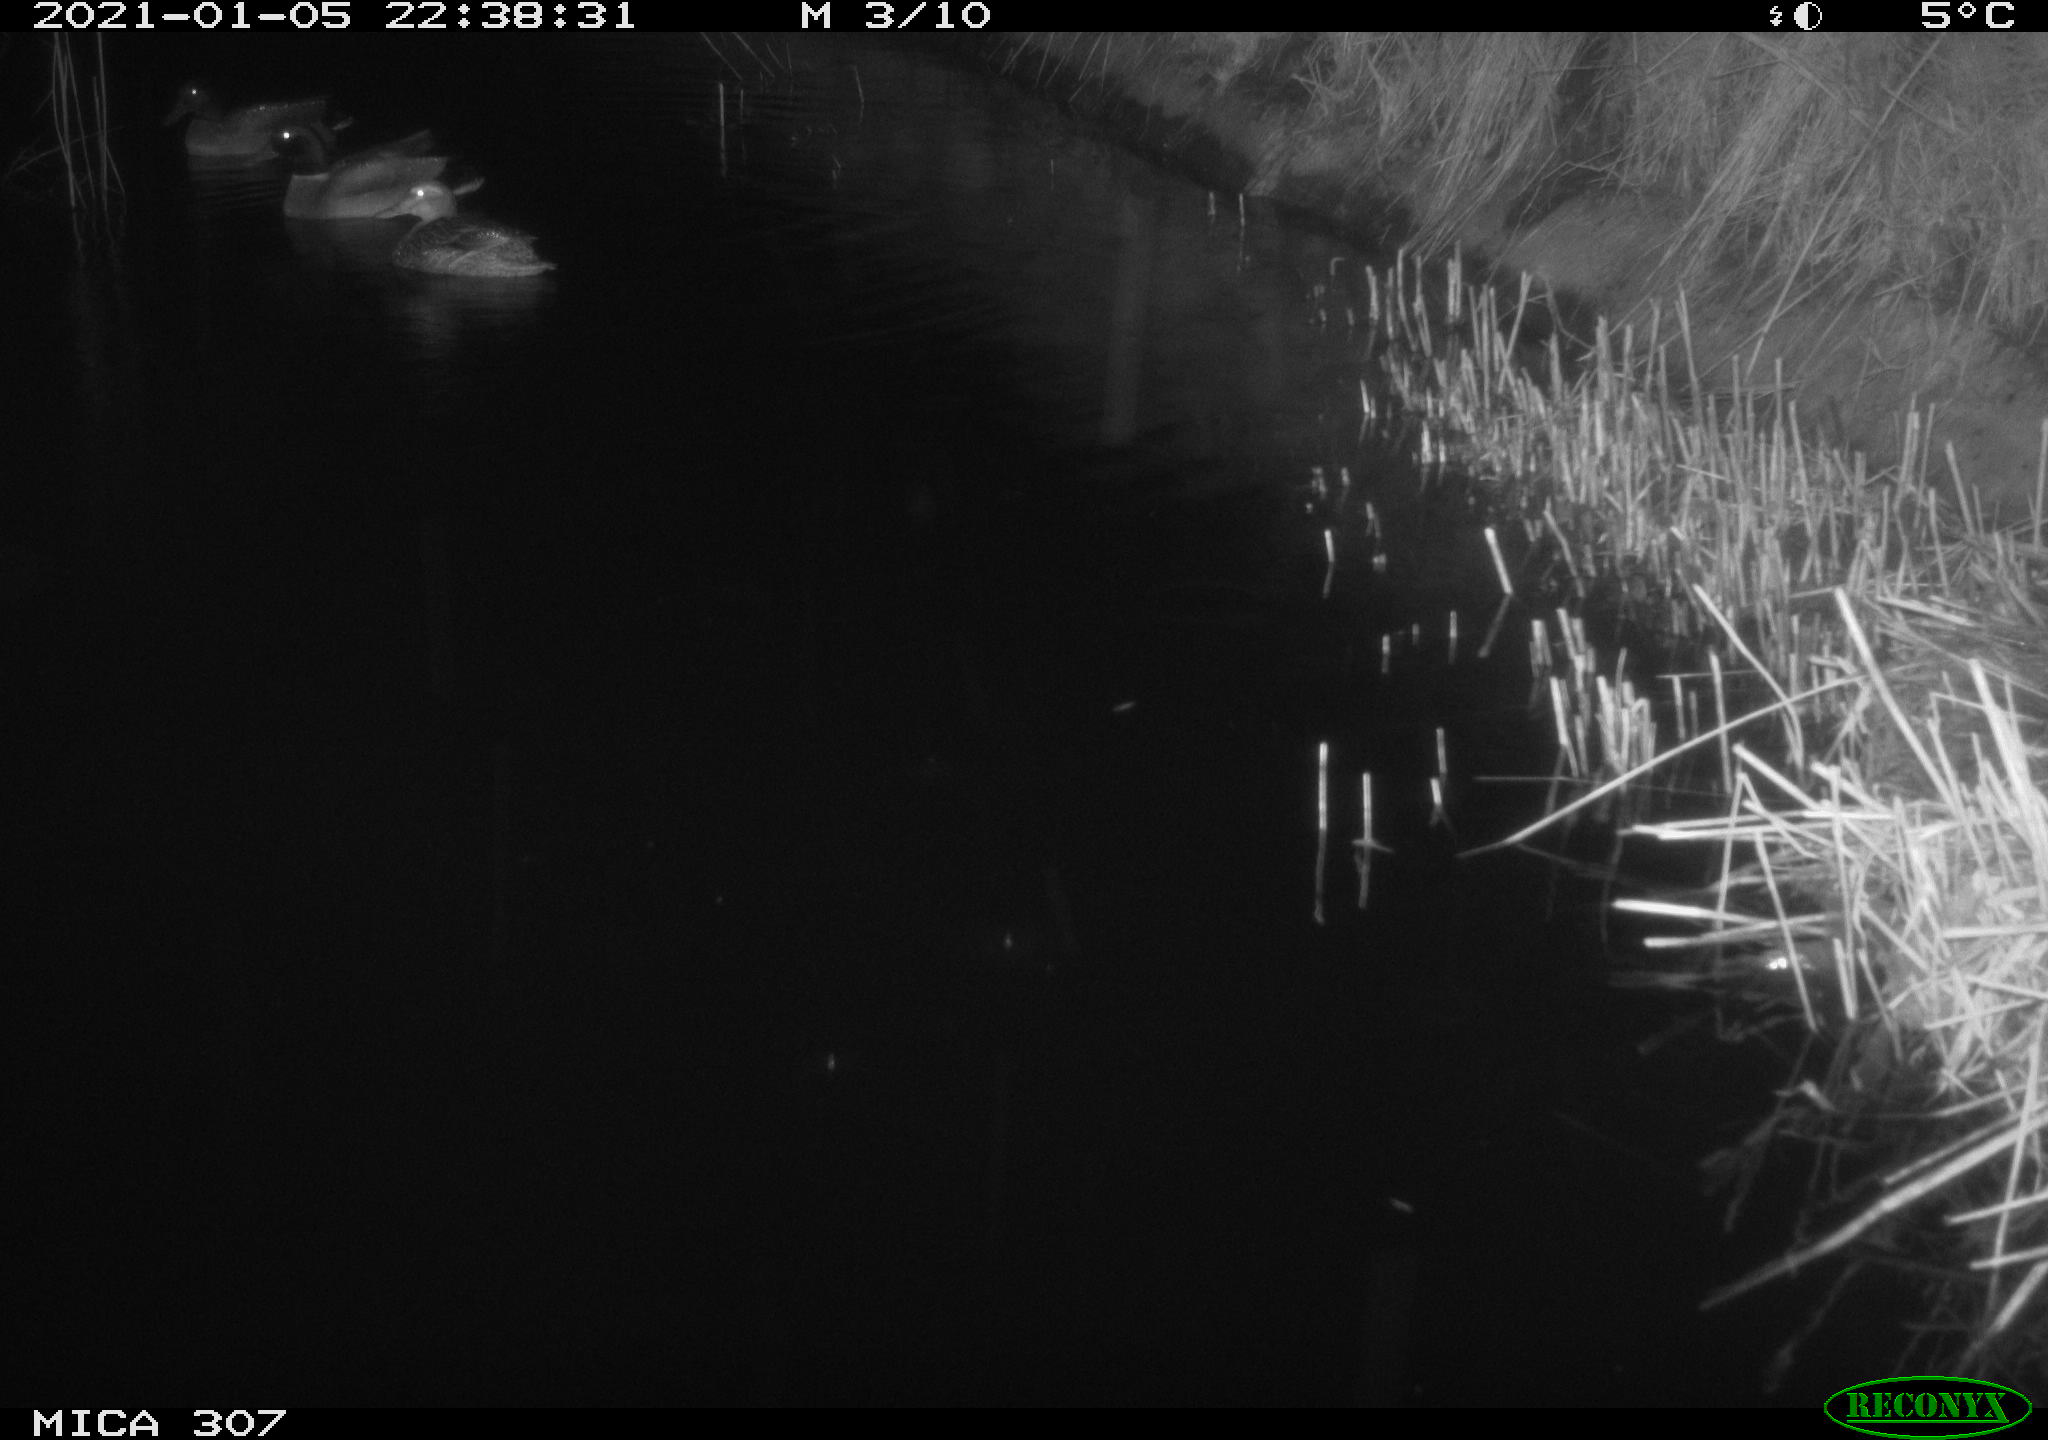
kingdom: Animalia
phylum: Chordata
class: Mammalia
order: Rodentia
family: Muridae
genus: Rattus
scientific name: Rattus norvegicus
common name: Brown rat
